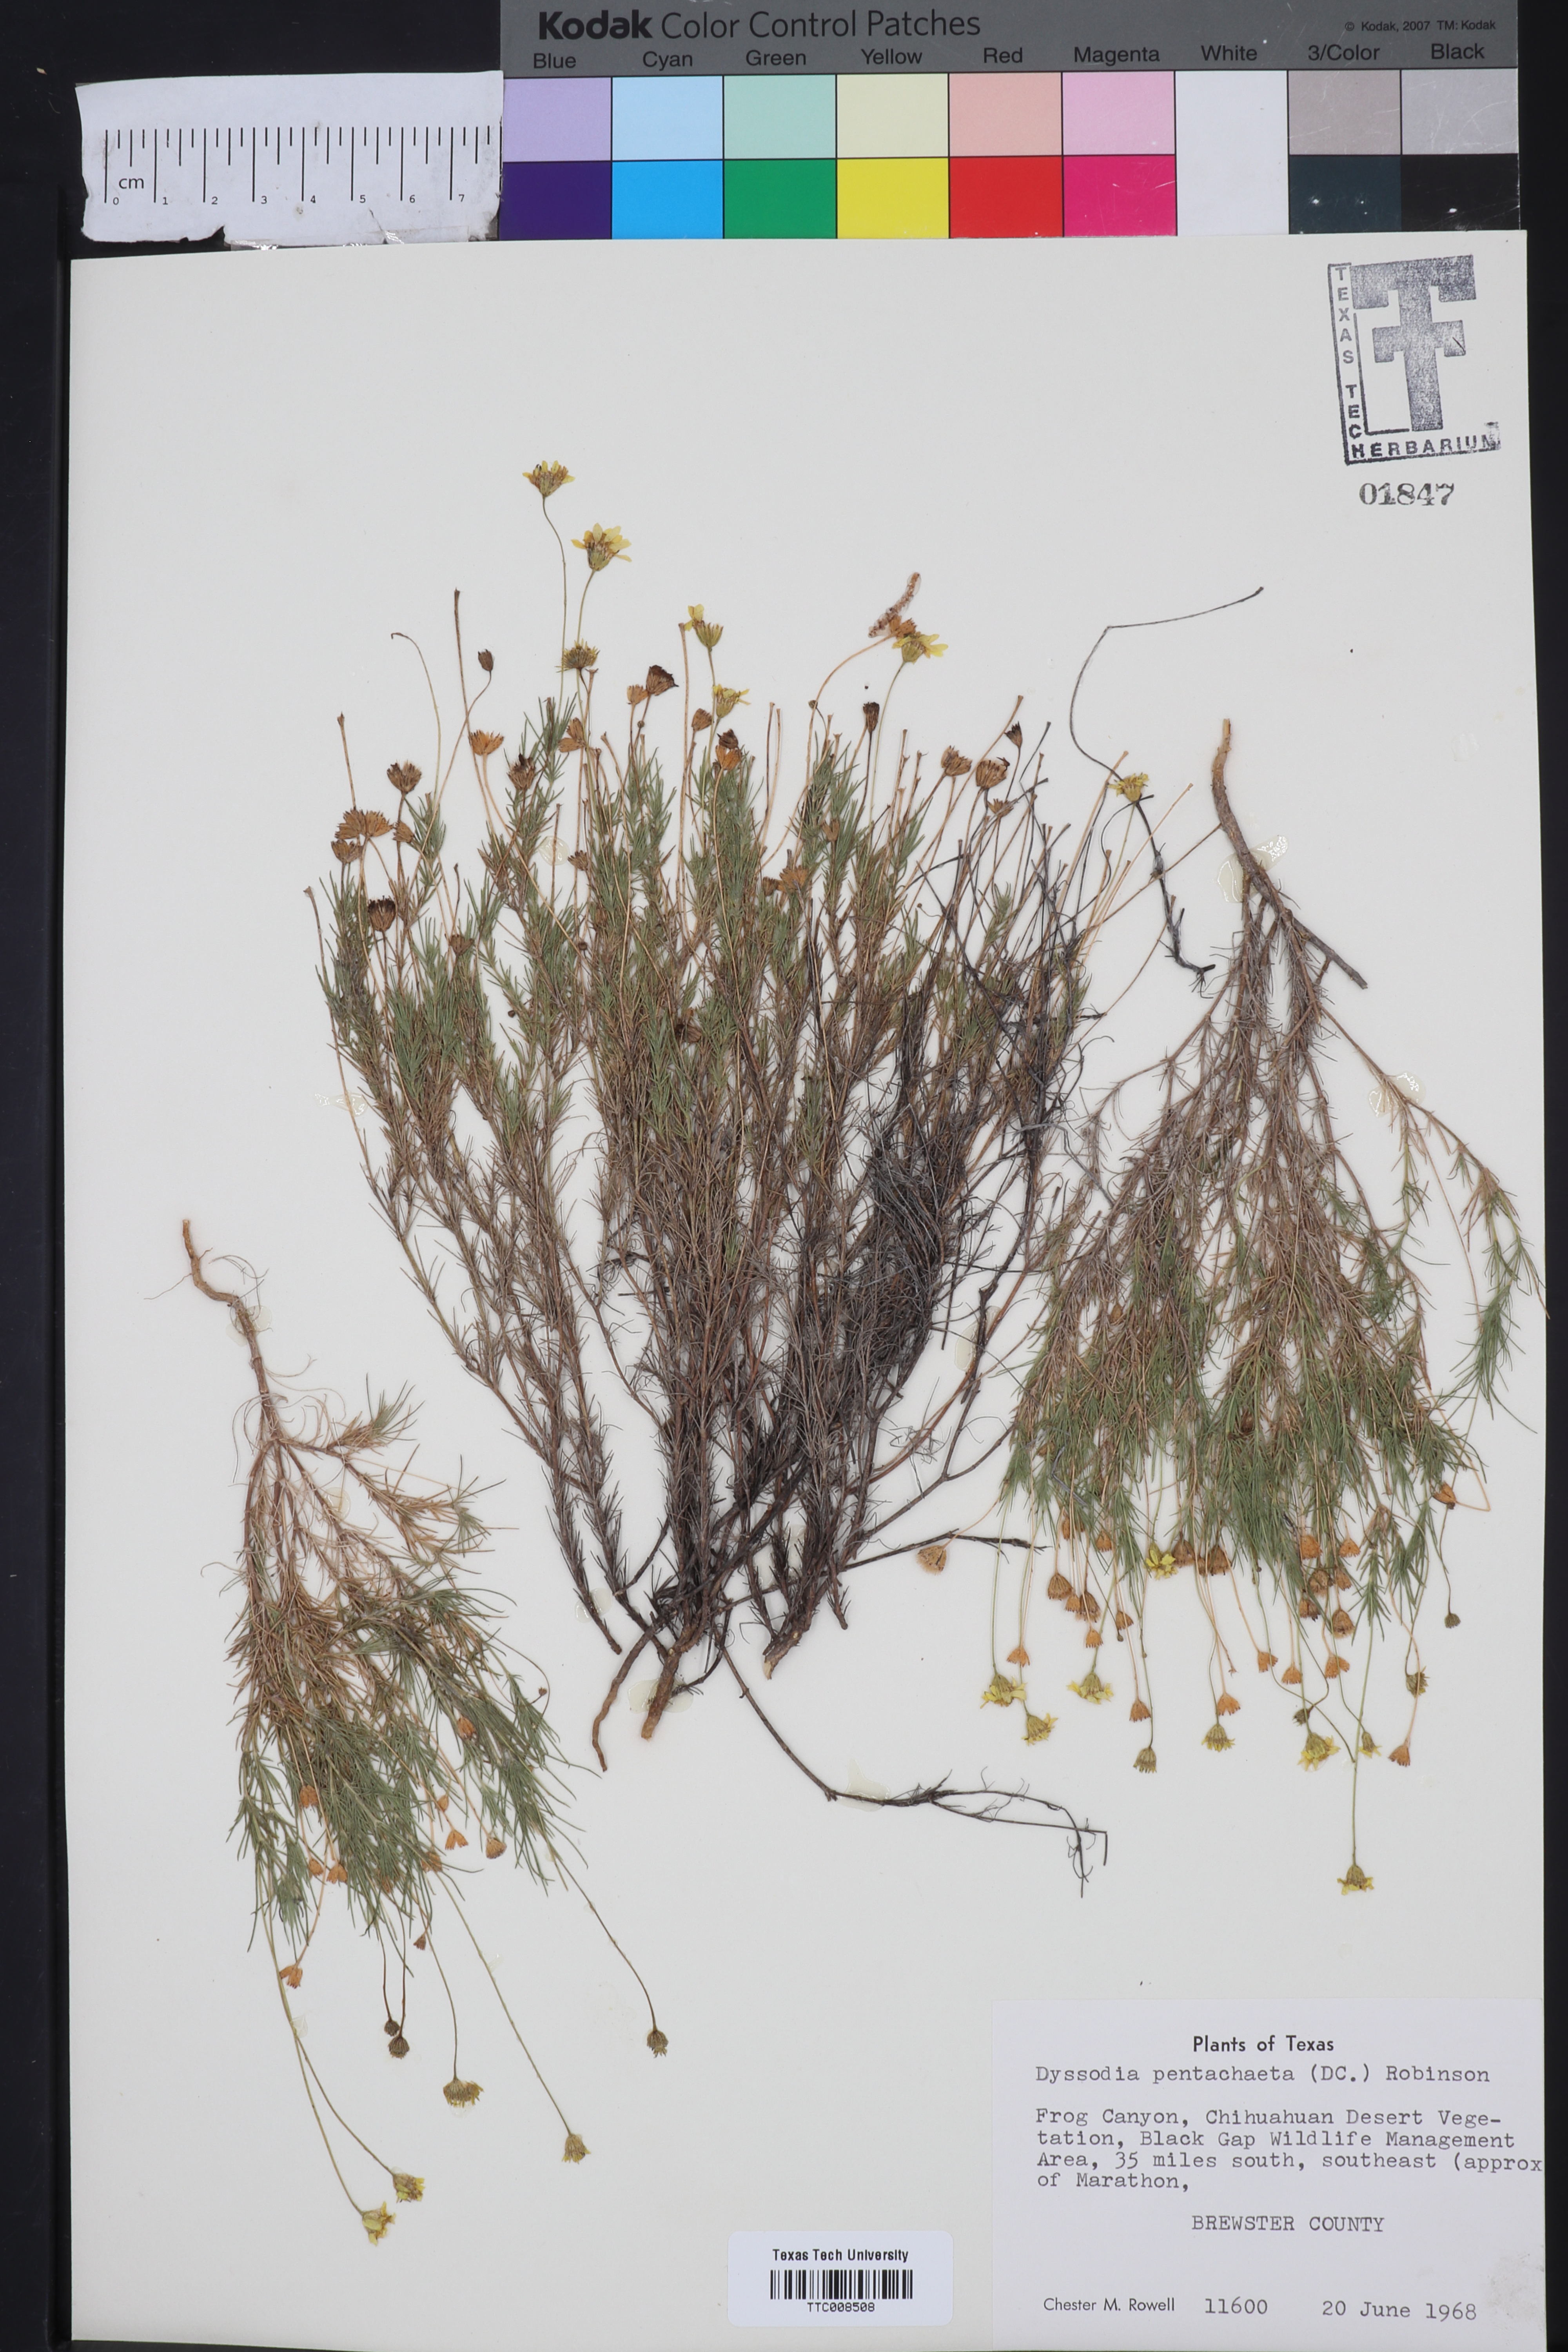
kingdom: Plantae
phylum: Tracheophyta
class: Magnoliopsida
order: Asterales
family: Asteraceae
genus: Thymophylla
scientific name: Thymophylla pentachaeta
